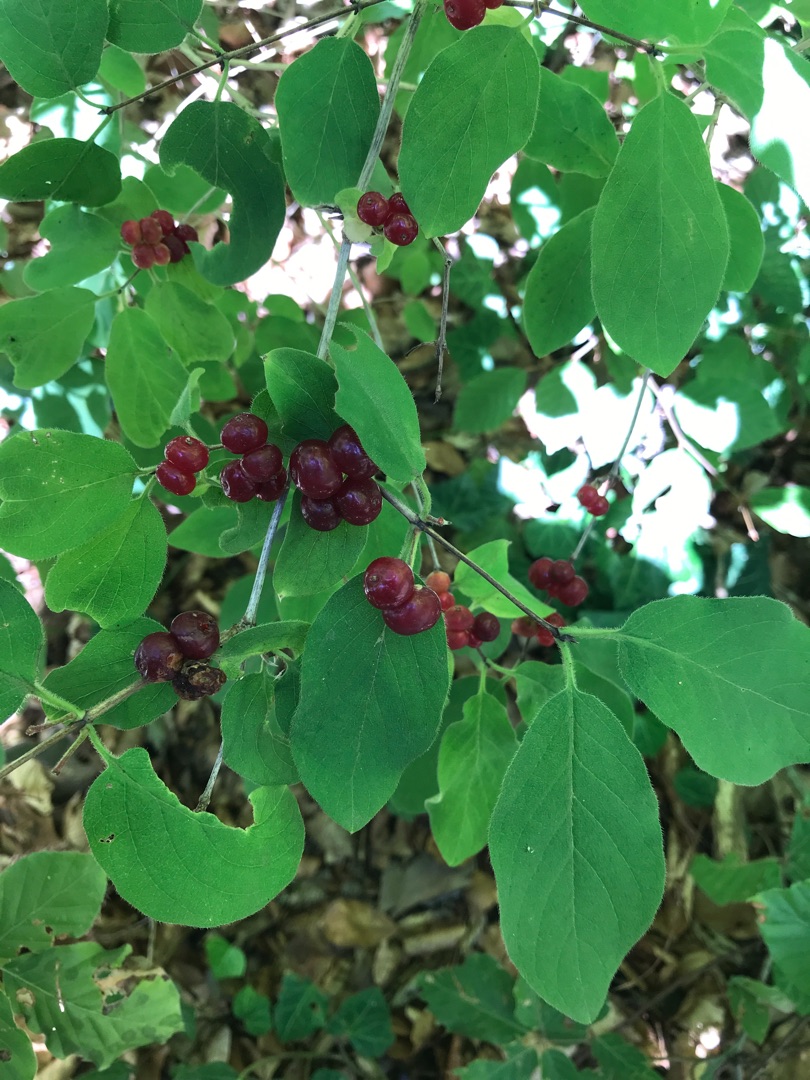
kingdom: Plantae
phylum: Tracheophyta
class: Magnoliopsida
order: Dipsacales
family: Caprifoliaceae
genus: Lonicera
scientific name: Lonicera xylosteum
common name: Dunet gedeblad
